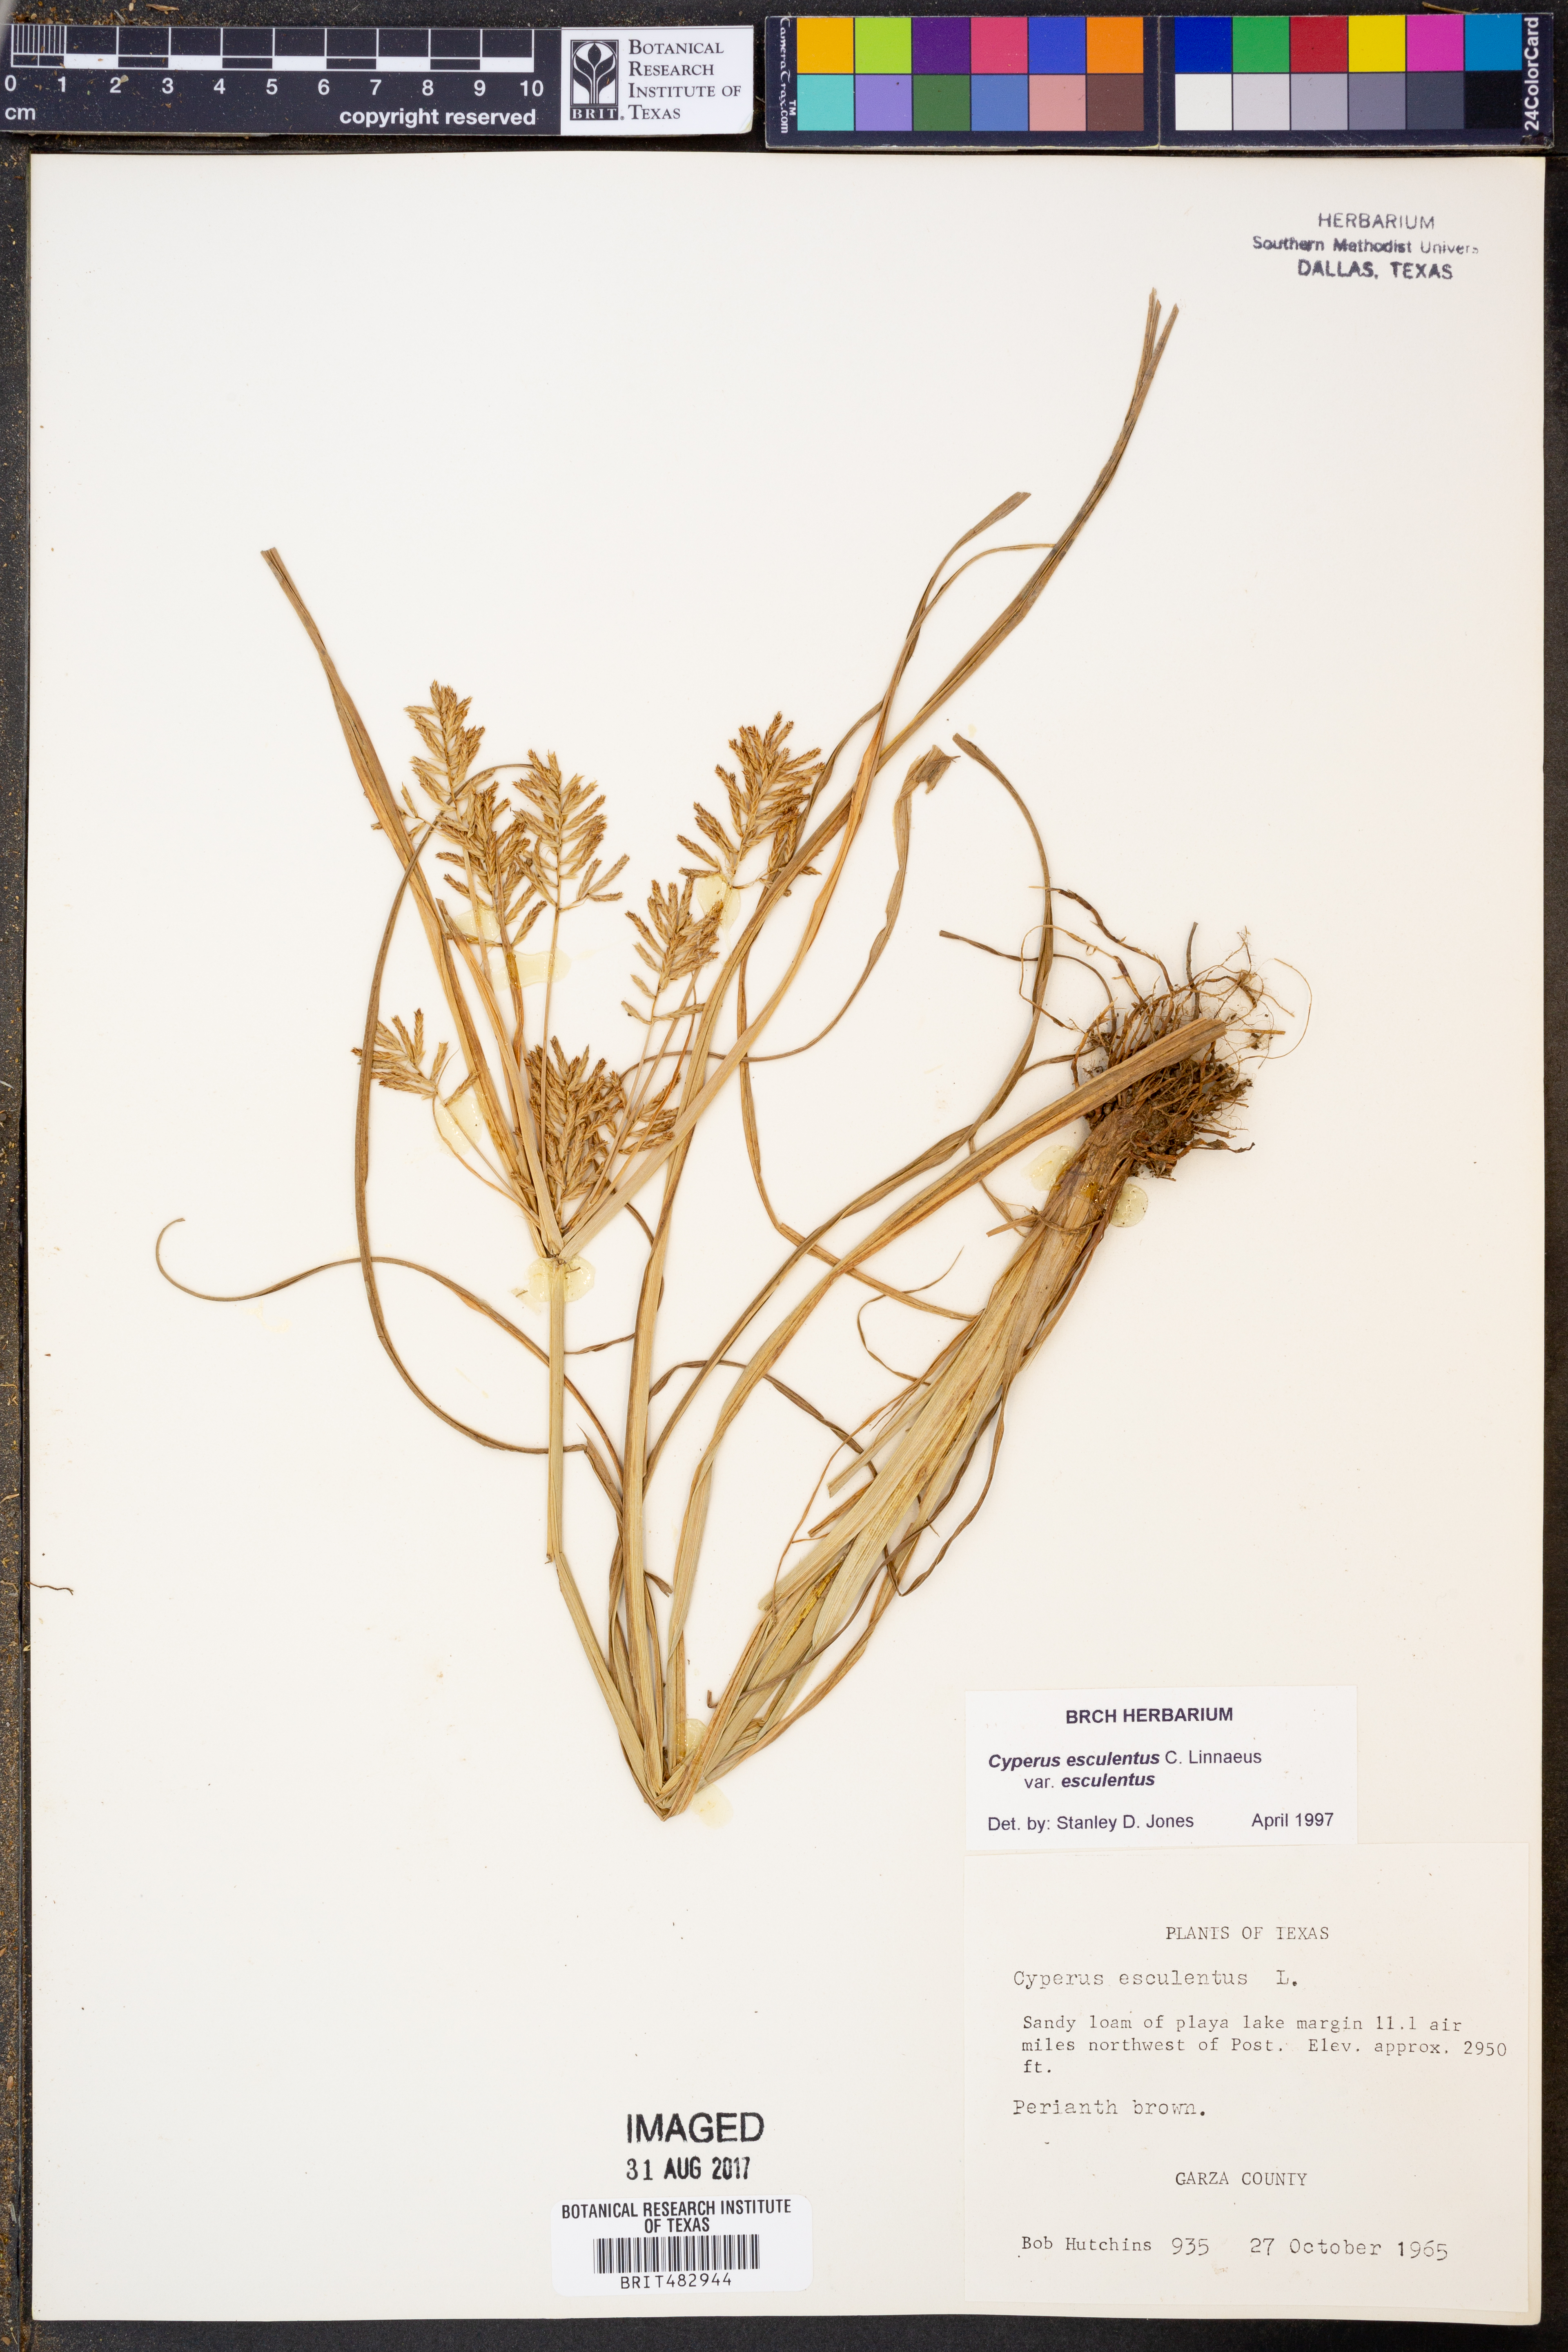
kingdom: Plantae
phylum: Tracheophyta
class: Liliopsida
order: Poales
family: Cyperaceae
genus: Cyperus
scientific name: Cyperus esculentus
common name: Yellow nutsedge
